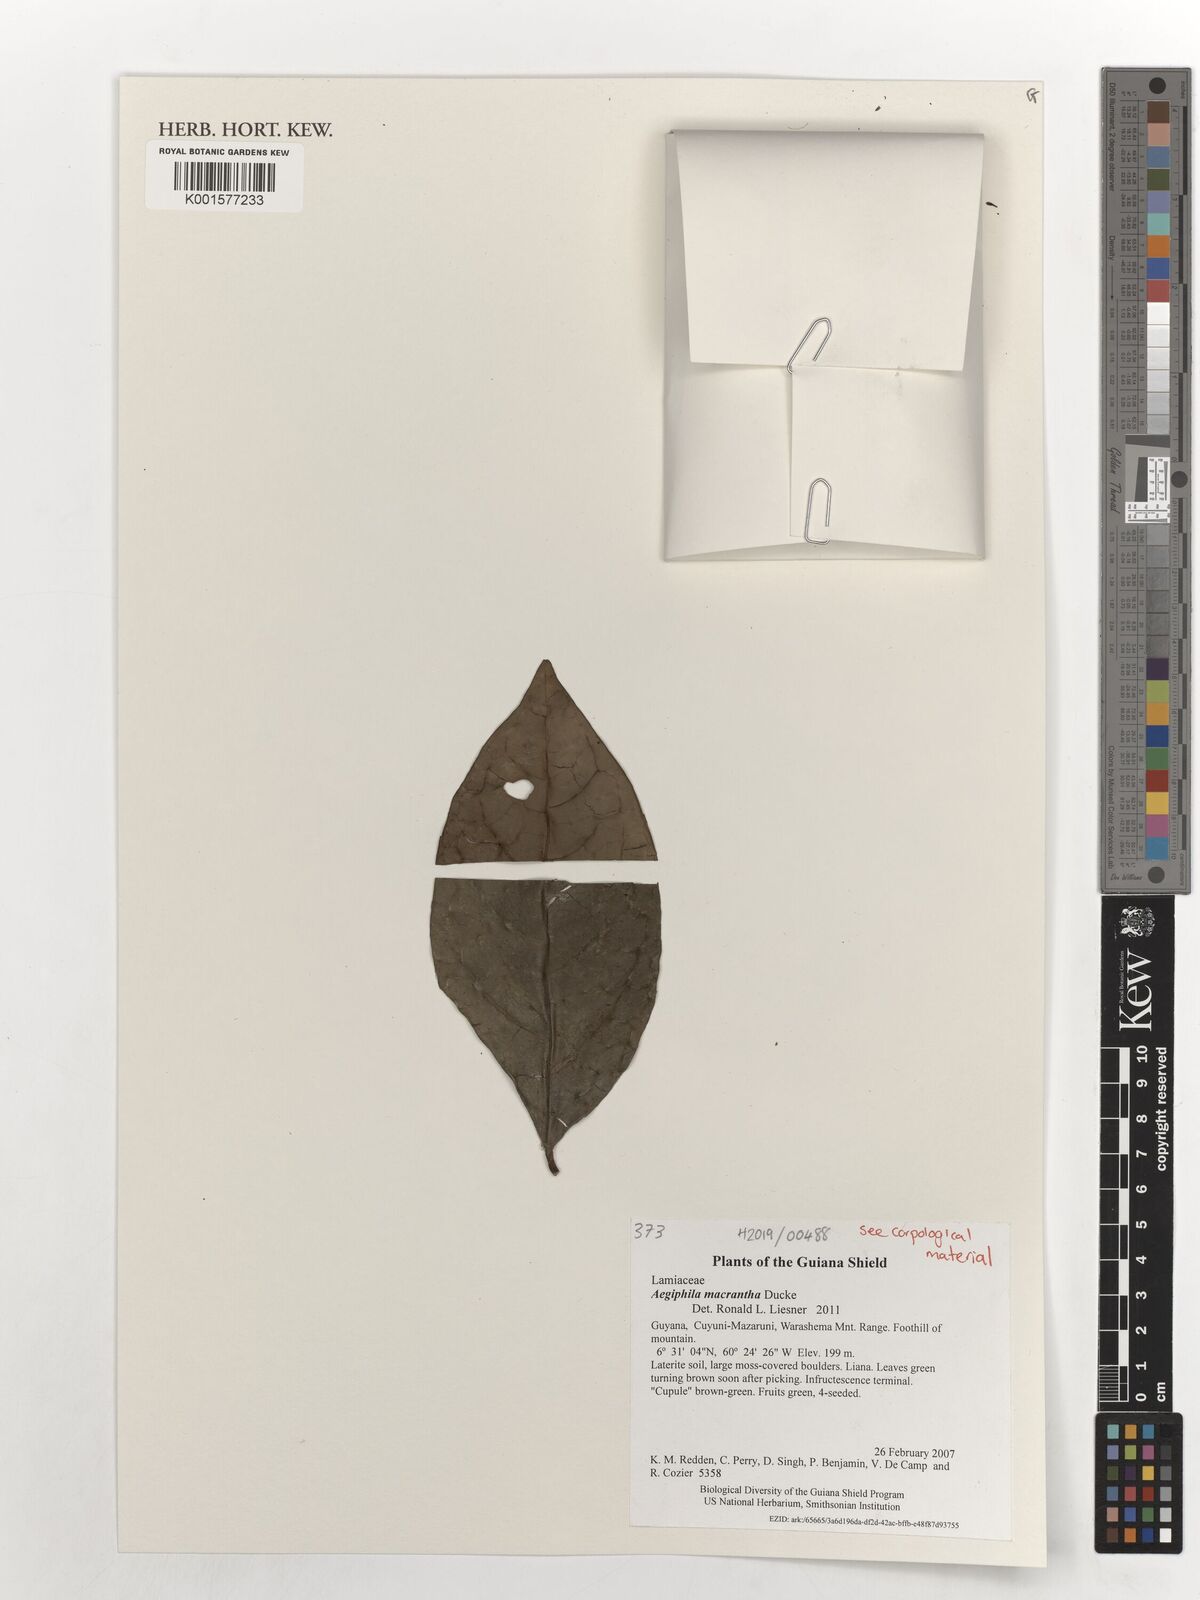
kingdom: Plantae
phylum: Tracheophyta
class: Magnoliopsida
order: Lamiales
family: Lamiaceae
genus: Aegiphila
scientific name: Aegiphila macrantha
